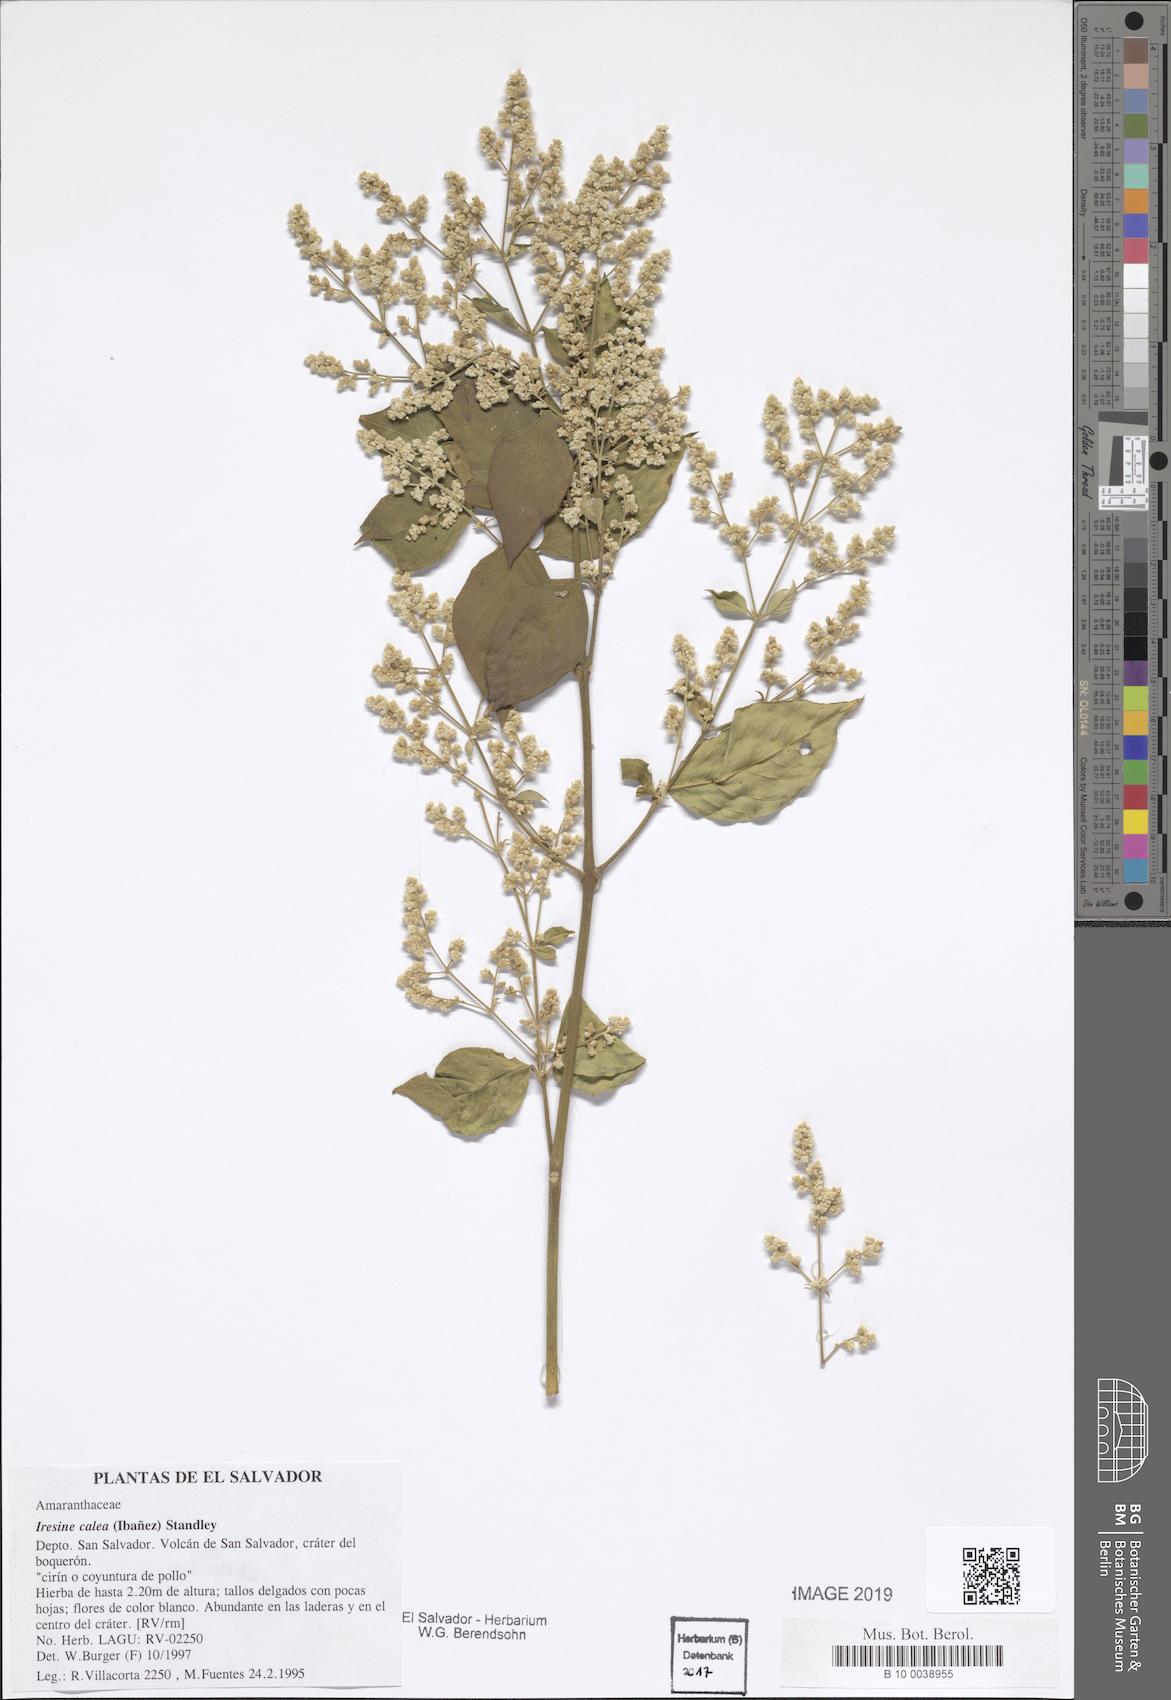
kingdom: Plantae
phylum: Tracheophyta
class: Magnoliopsida
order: Caryophyllales
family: Amaranthaceae
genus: Iresine
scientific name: Iresine latifolia
